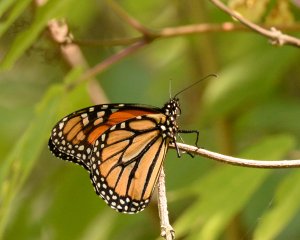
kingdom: Animalia
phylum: Arthropoda
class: Insecta
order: Lepidoptera
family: Nymphalidae
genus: Danaus
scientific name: Danaus plexippus
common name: Monarch
